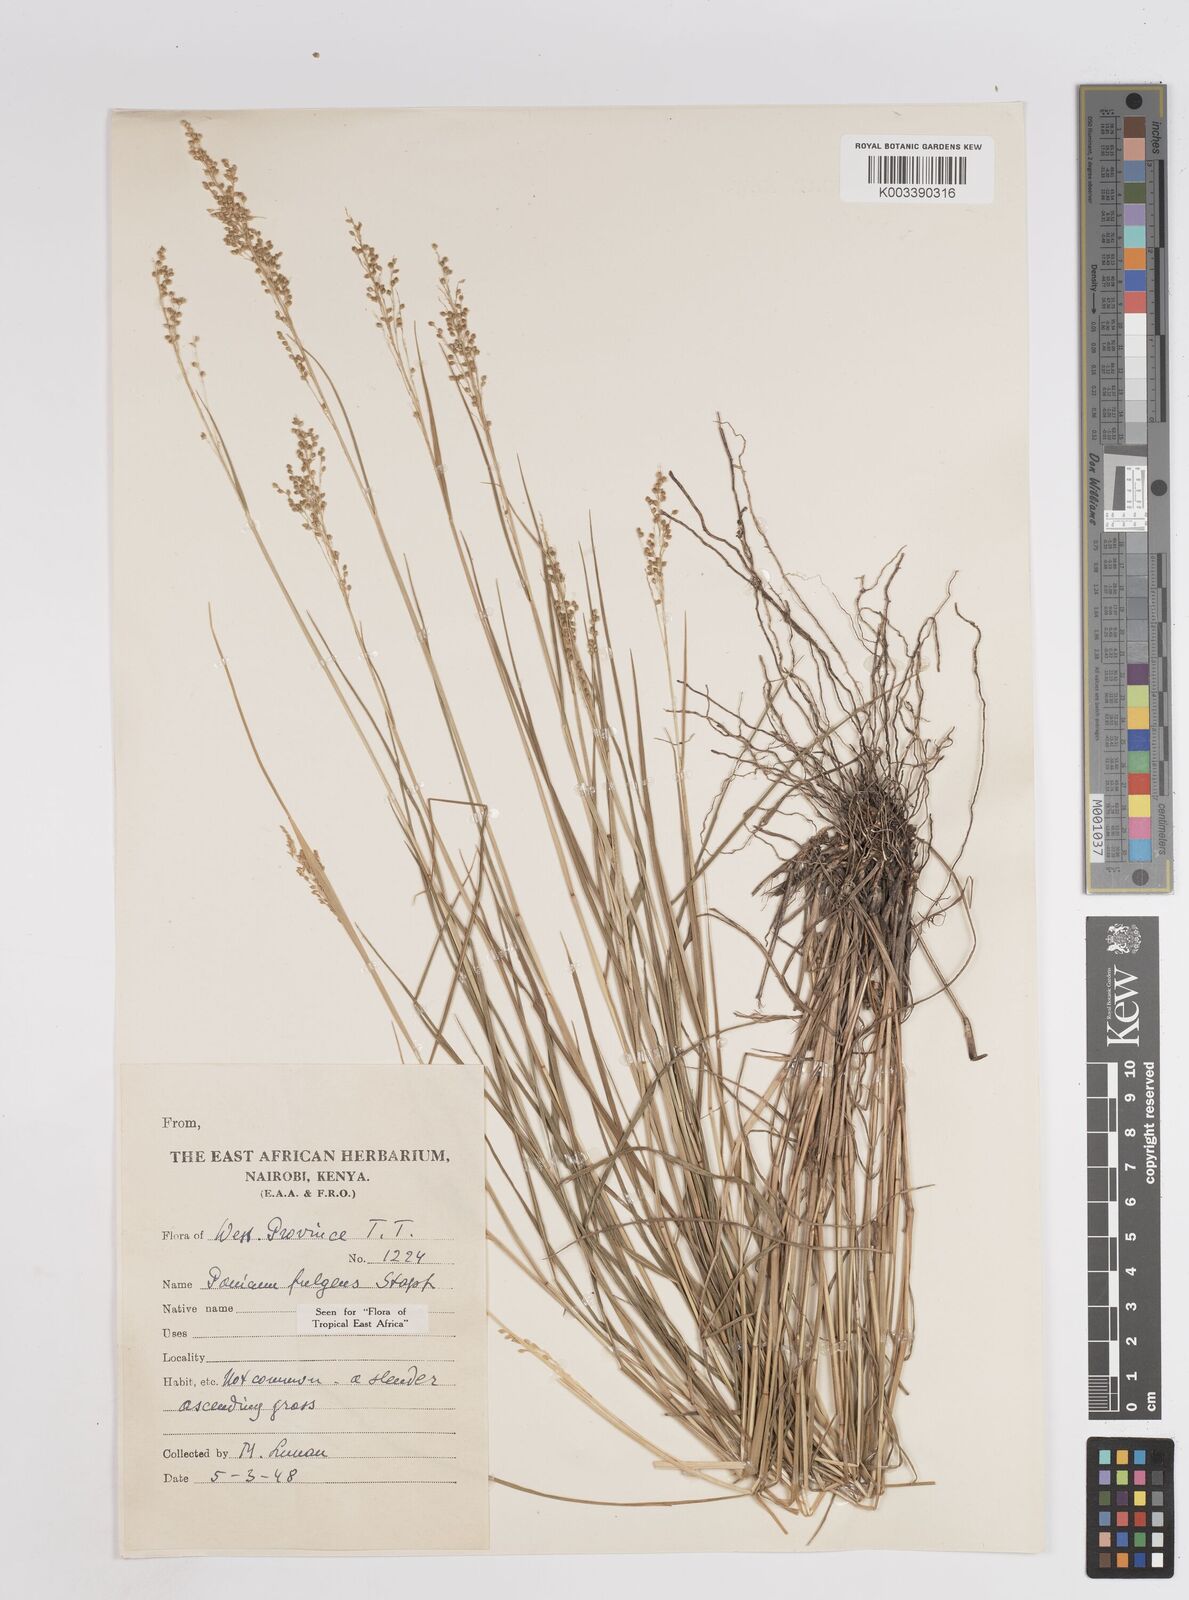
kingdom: Plantae
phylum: Tracheophyta
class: Liliopsida
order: Poales
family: Poaceae
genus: Trichanthecium
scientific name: Trichanthecium nervatum
